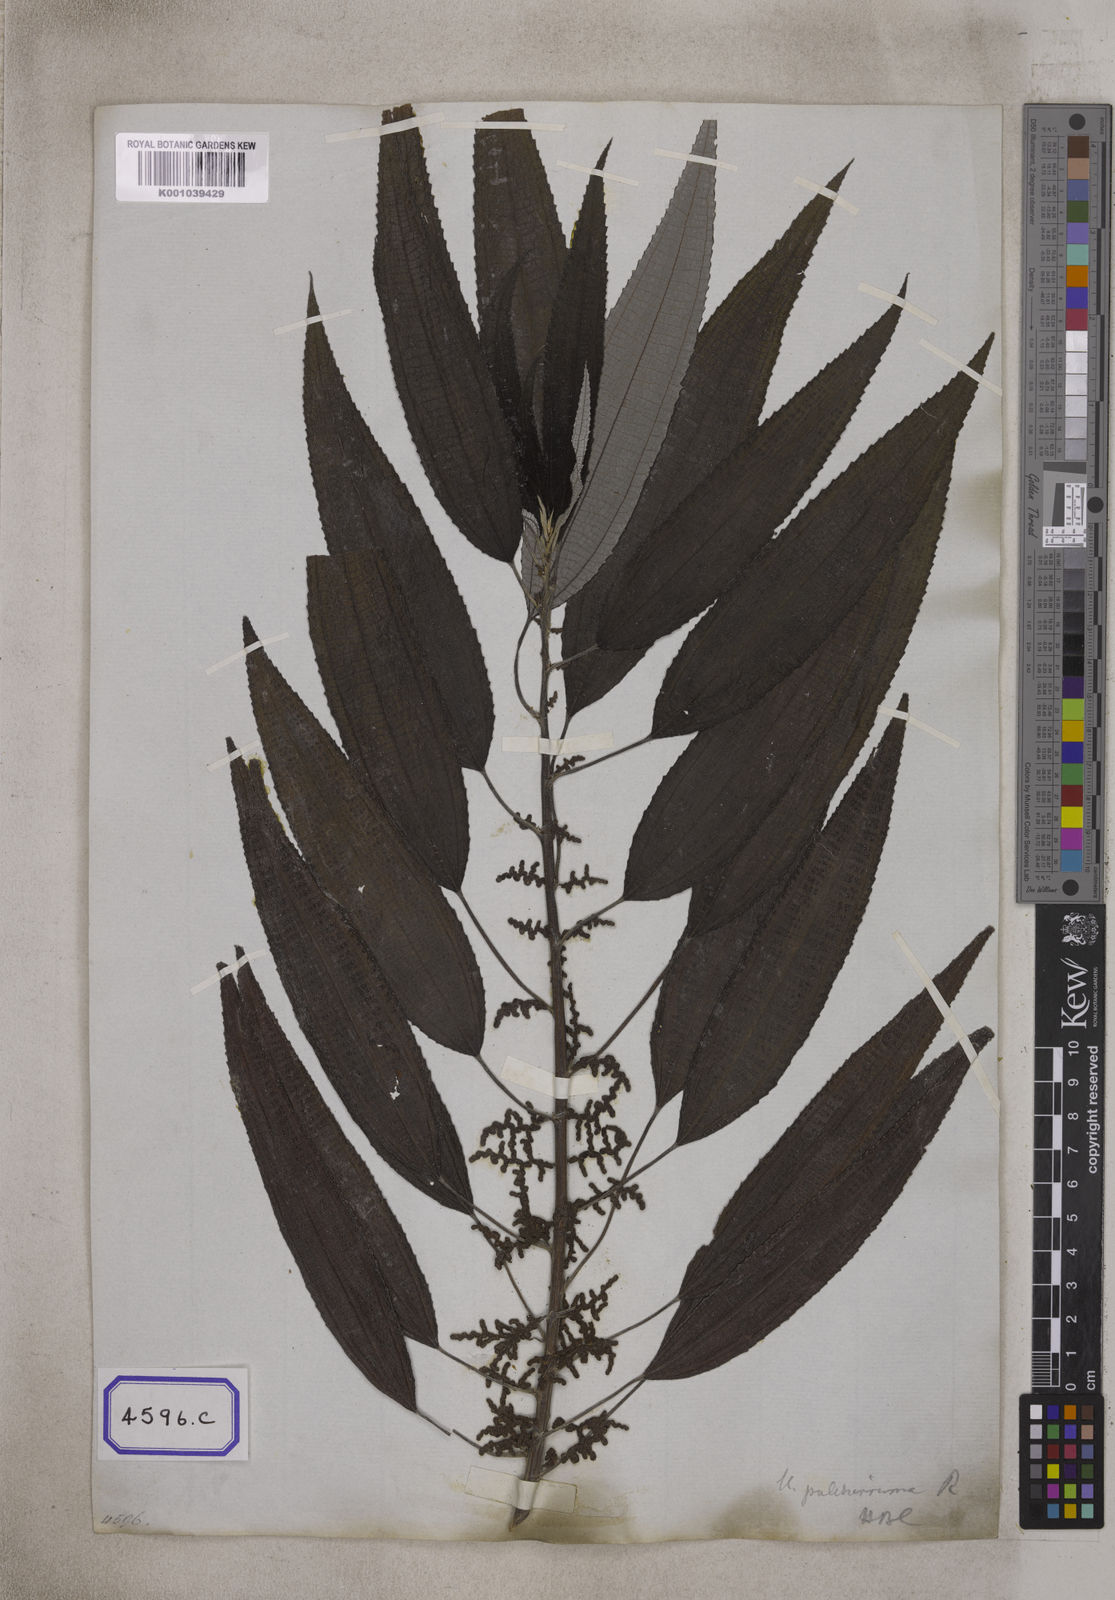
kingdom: Plantae
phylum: Tracheophyta
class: Magnoliopsida
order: Rosales
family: Urticaceae
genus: Boehmeria
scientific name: Boehmeria virgata
